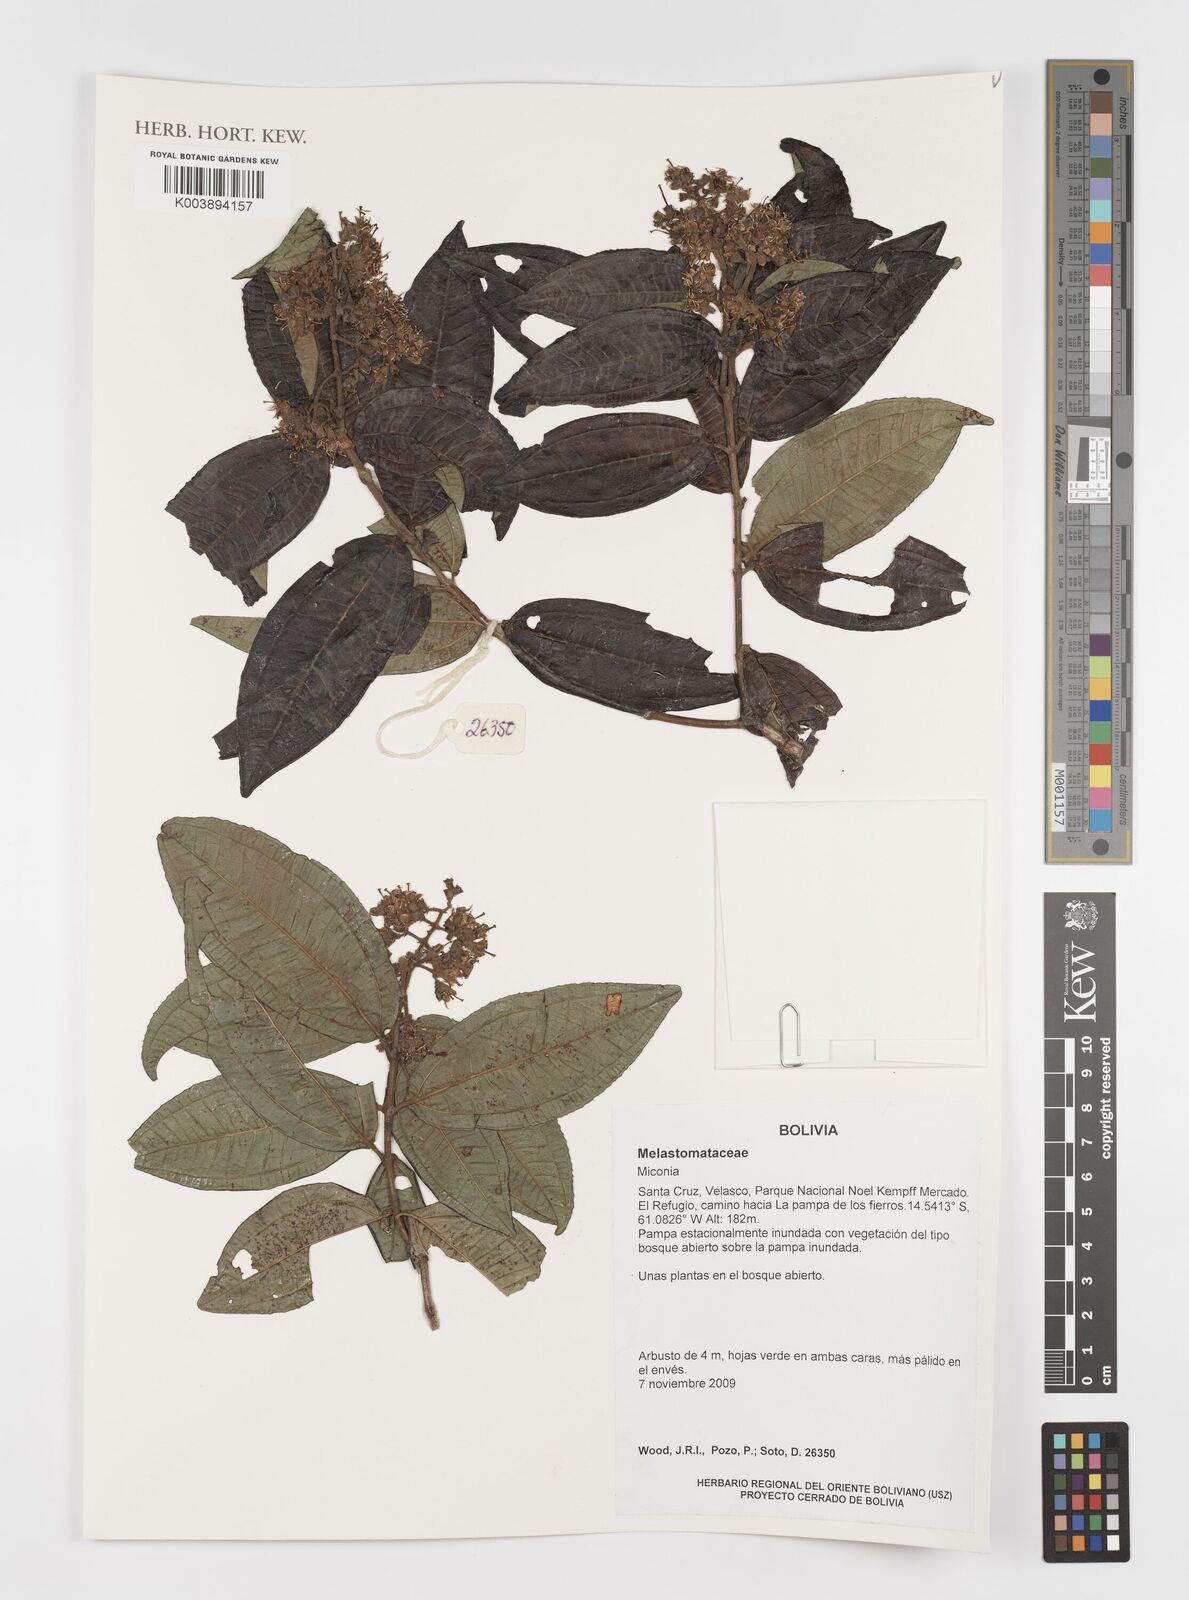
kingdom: Plantae
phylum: Tracheophyta
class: Magnoliopsida
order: Myrtales
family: Melastomataceae
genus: Miconia
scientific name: Miconia
